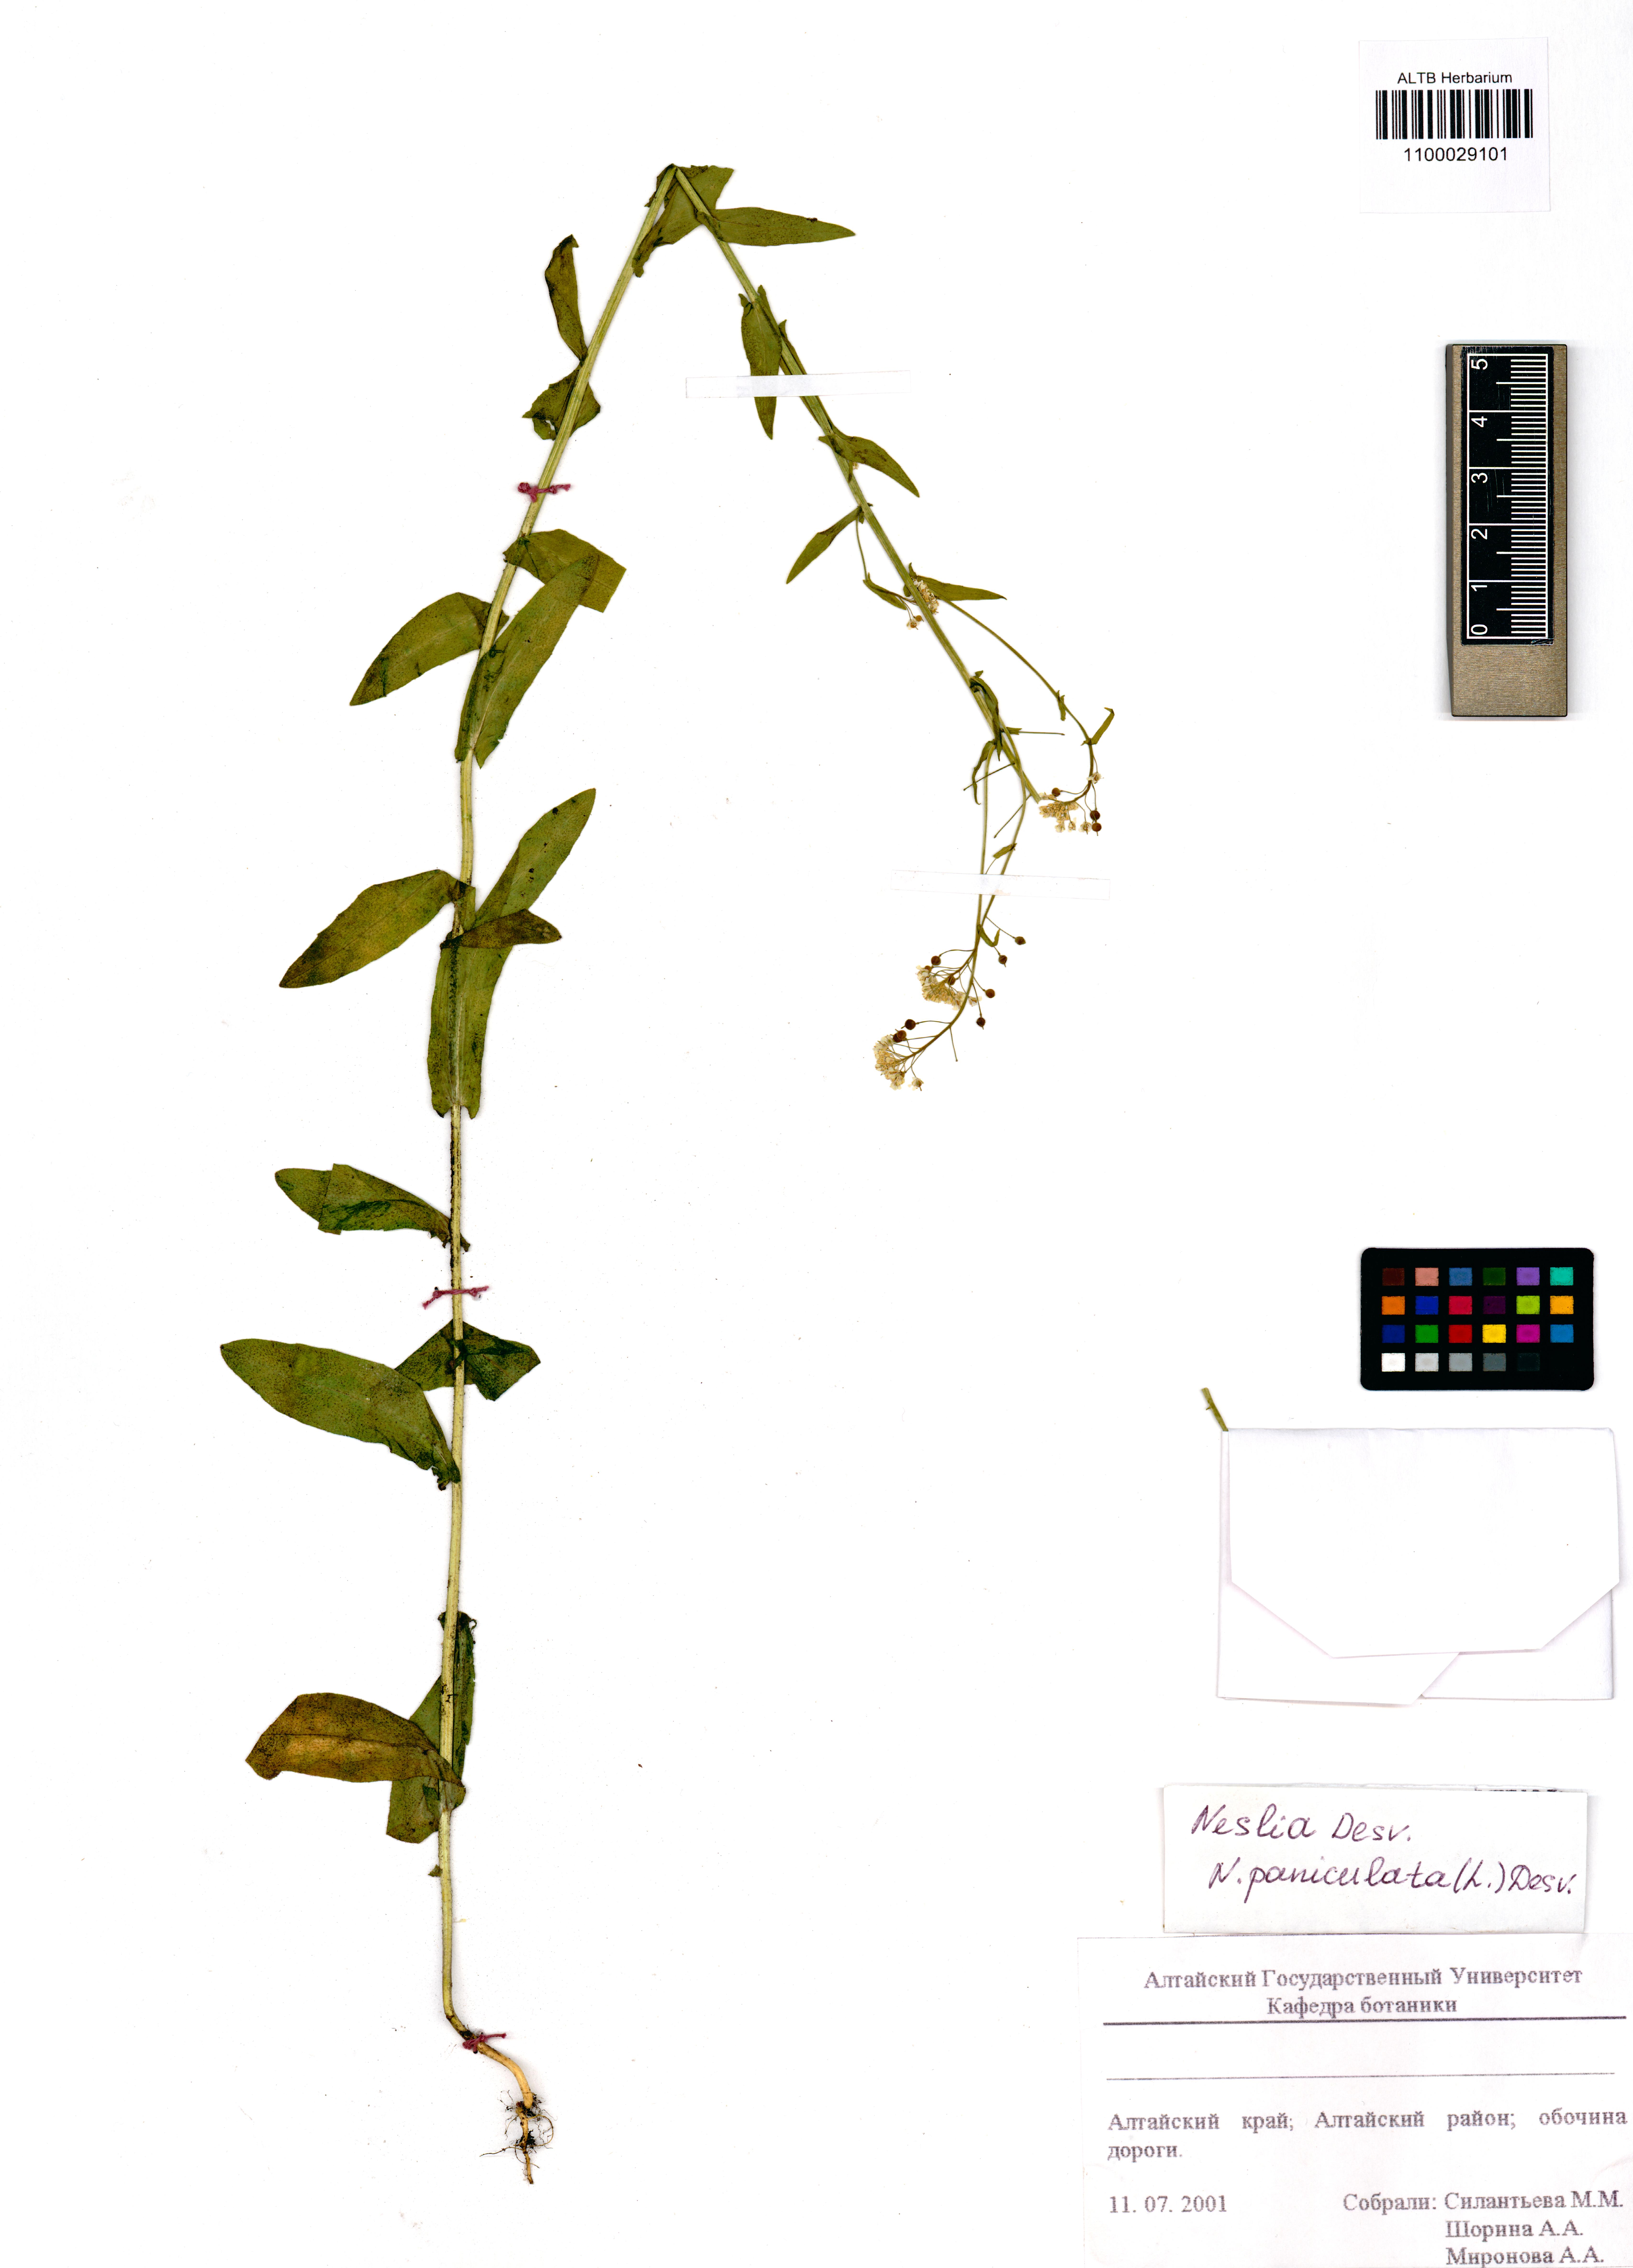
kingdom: Plantae
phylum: Tracheophyta
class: Magnoliopsida
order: Brassicales
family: Brassicaceae
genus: Neslia
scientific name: Neslia paniculata
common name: Ball mustard
